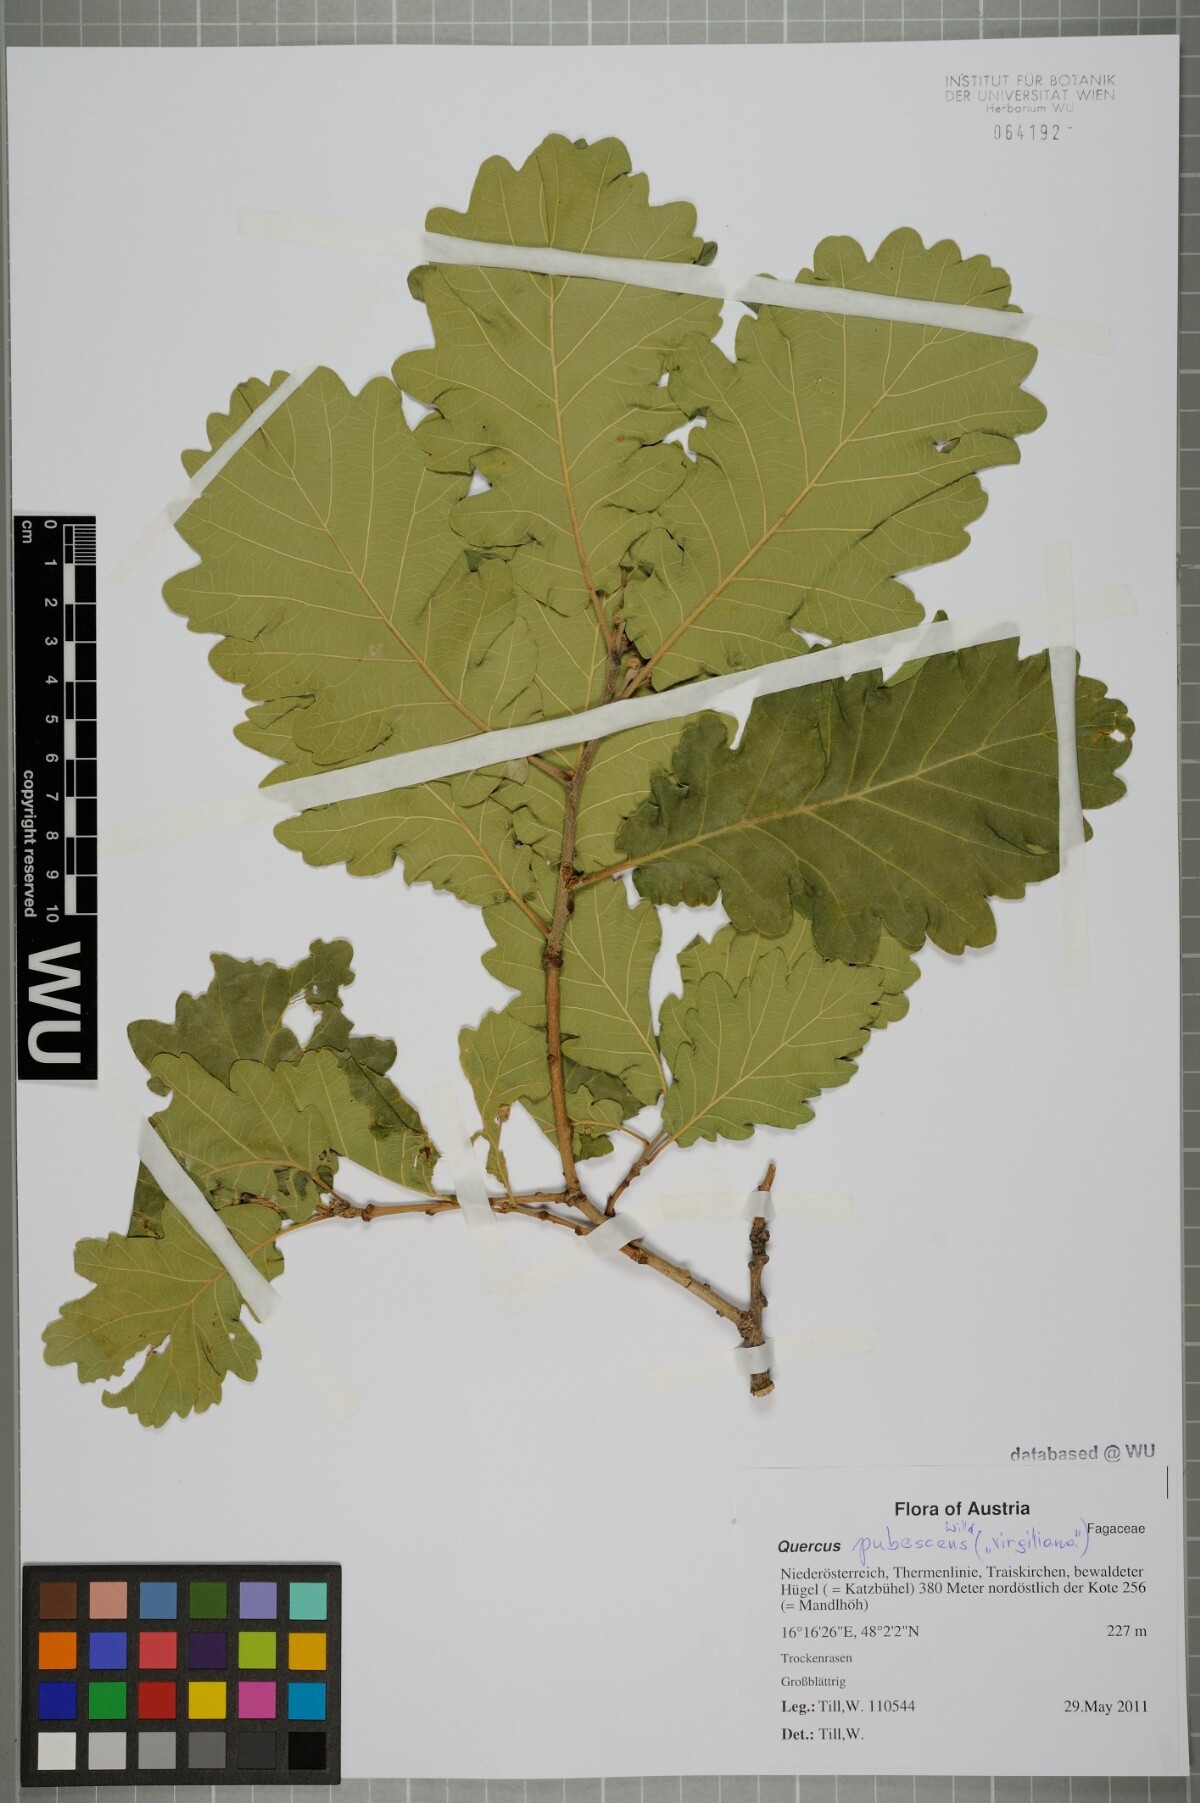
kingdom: Plantae
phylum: Tracheophyta
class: Magnoliopsida
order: Fagales
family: Fagaceae
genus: Quercus
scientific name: Quercus pubescens
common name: Downy oak
